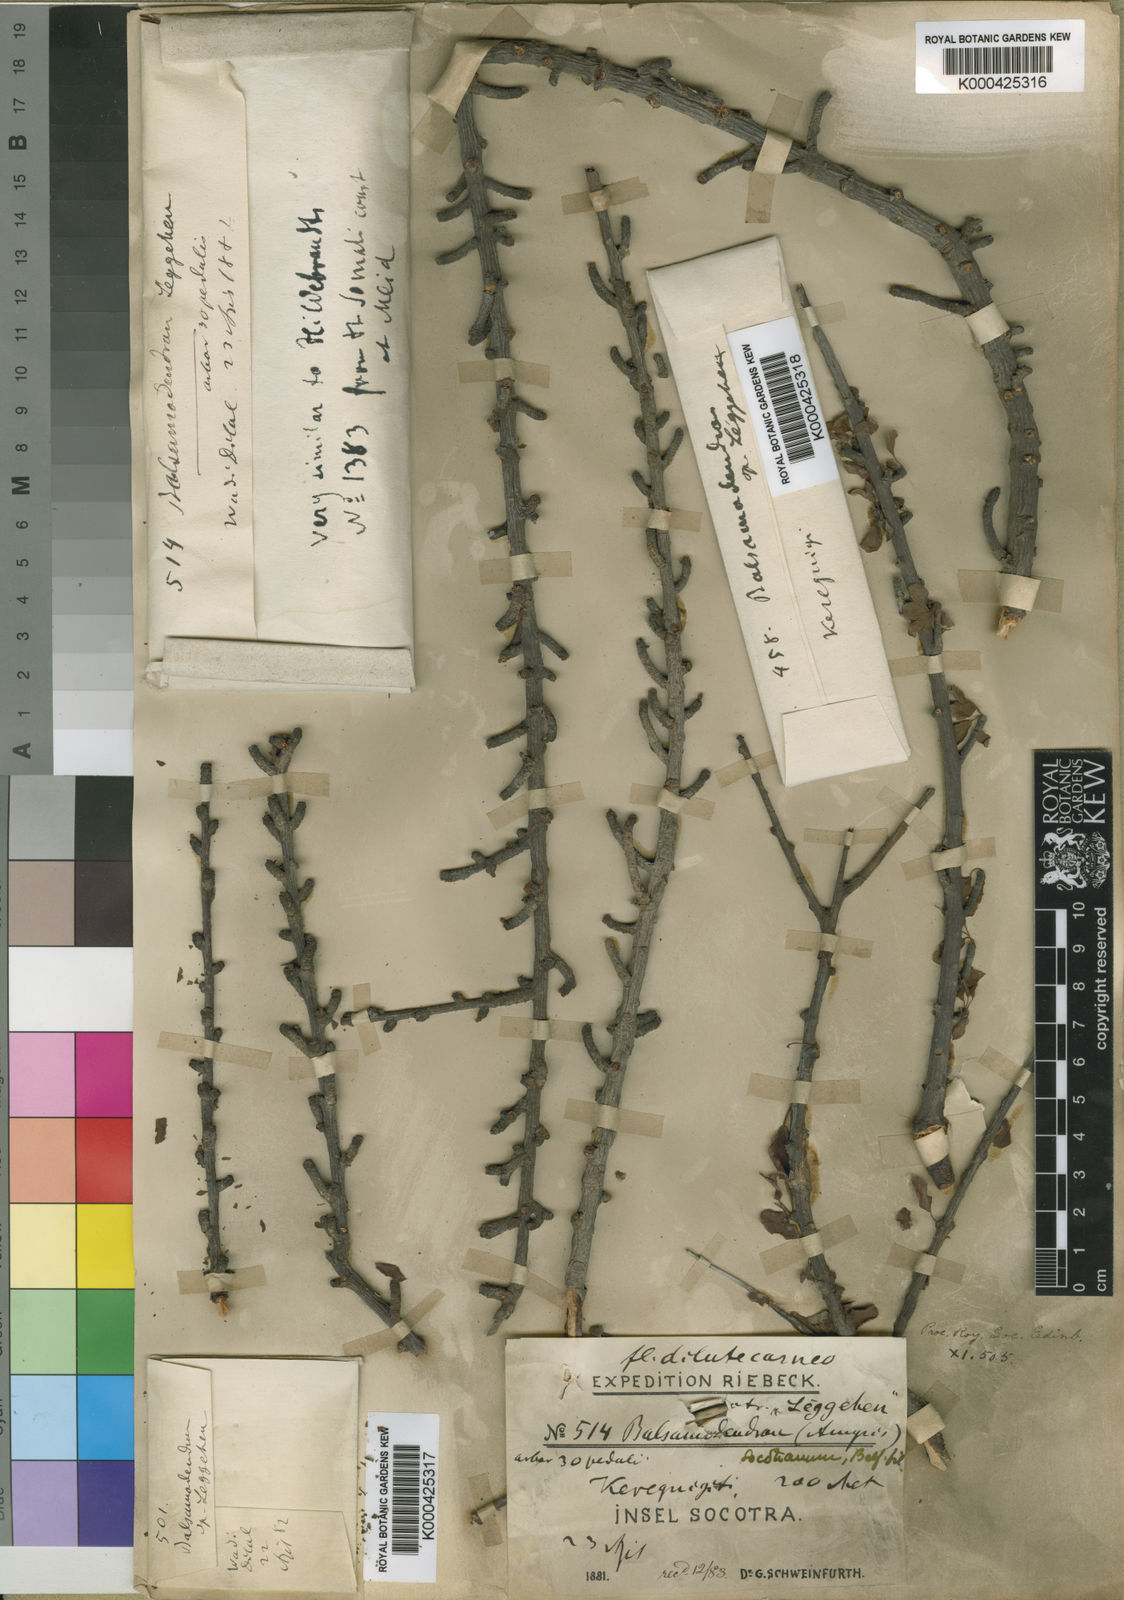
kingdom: Plantae
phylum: Tracheophyta
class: Magnoliopsida
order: Sapindales
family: Burseraceae
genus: Commiphora
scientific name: Commiphora socotrana
